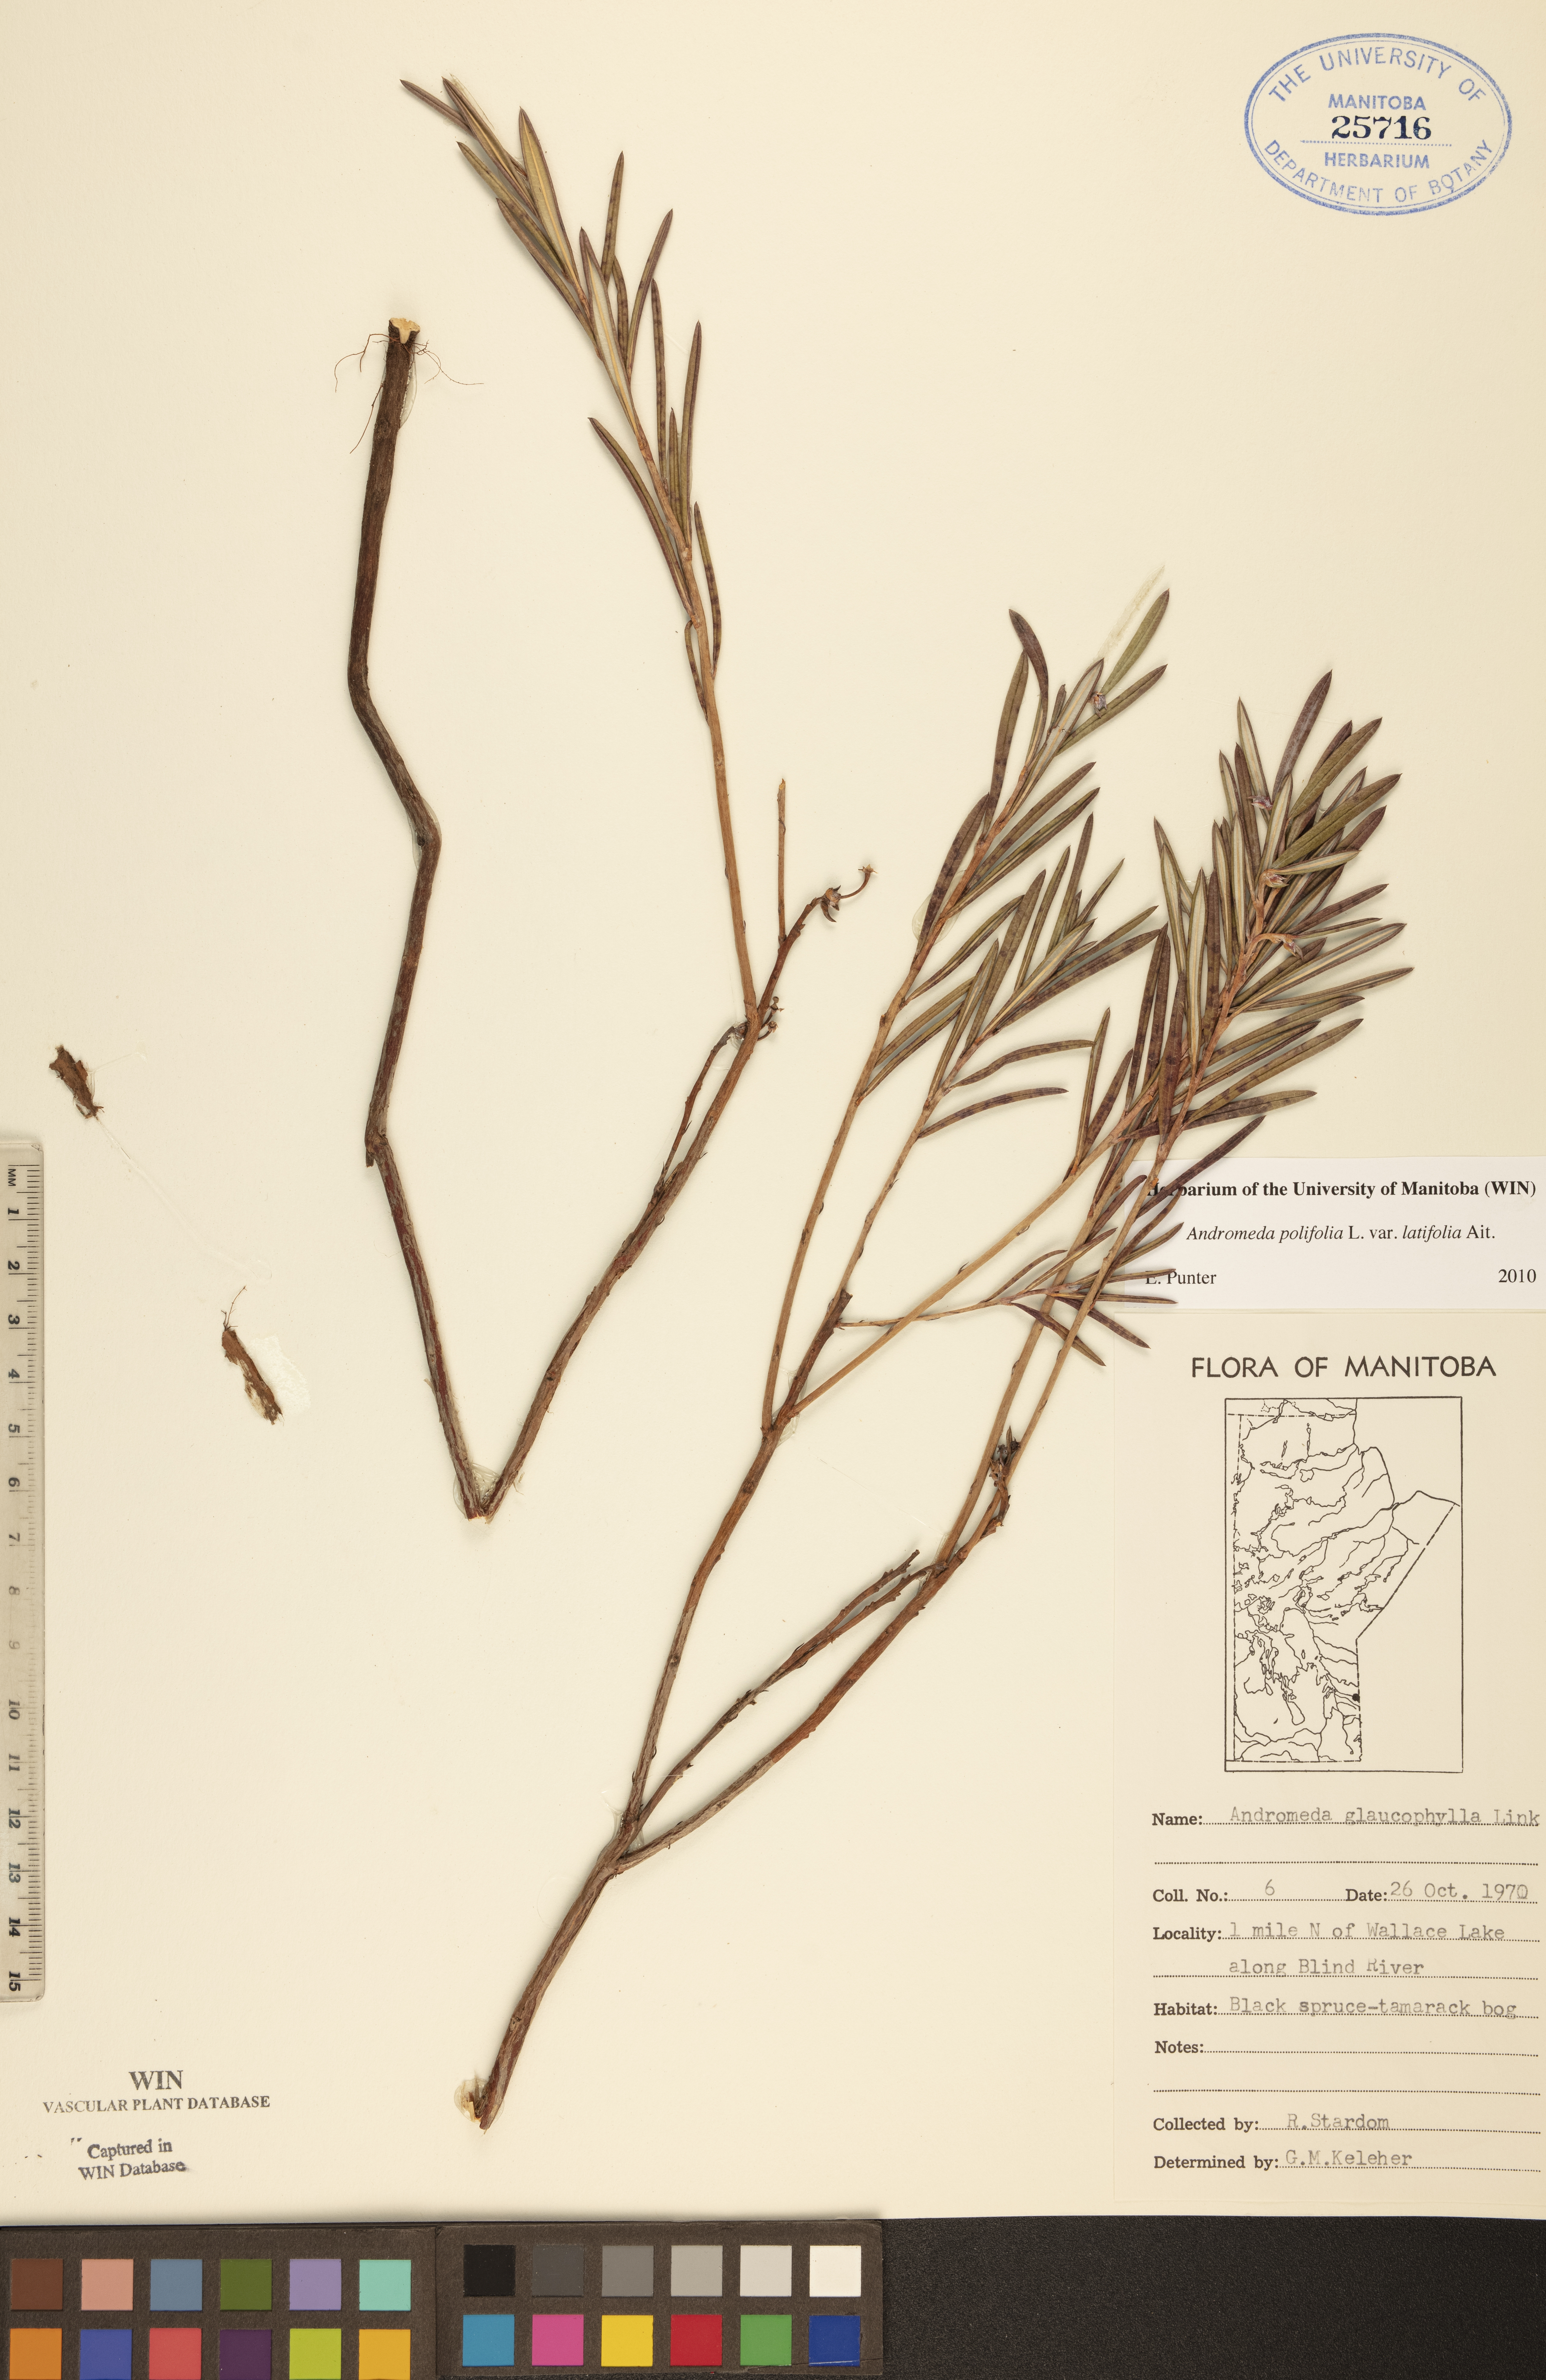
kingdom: Plantae
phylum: Tracheophyta
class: Magnoliopsida
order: Ericales
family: Ericaceae
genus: Andromeda
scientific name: Andromeda polifolia
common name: Bog-rosemary
